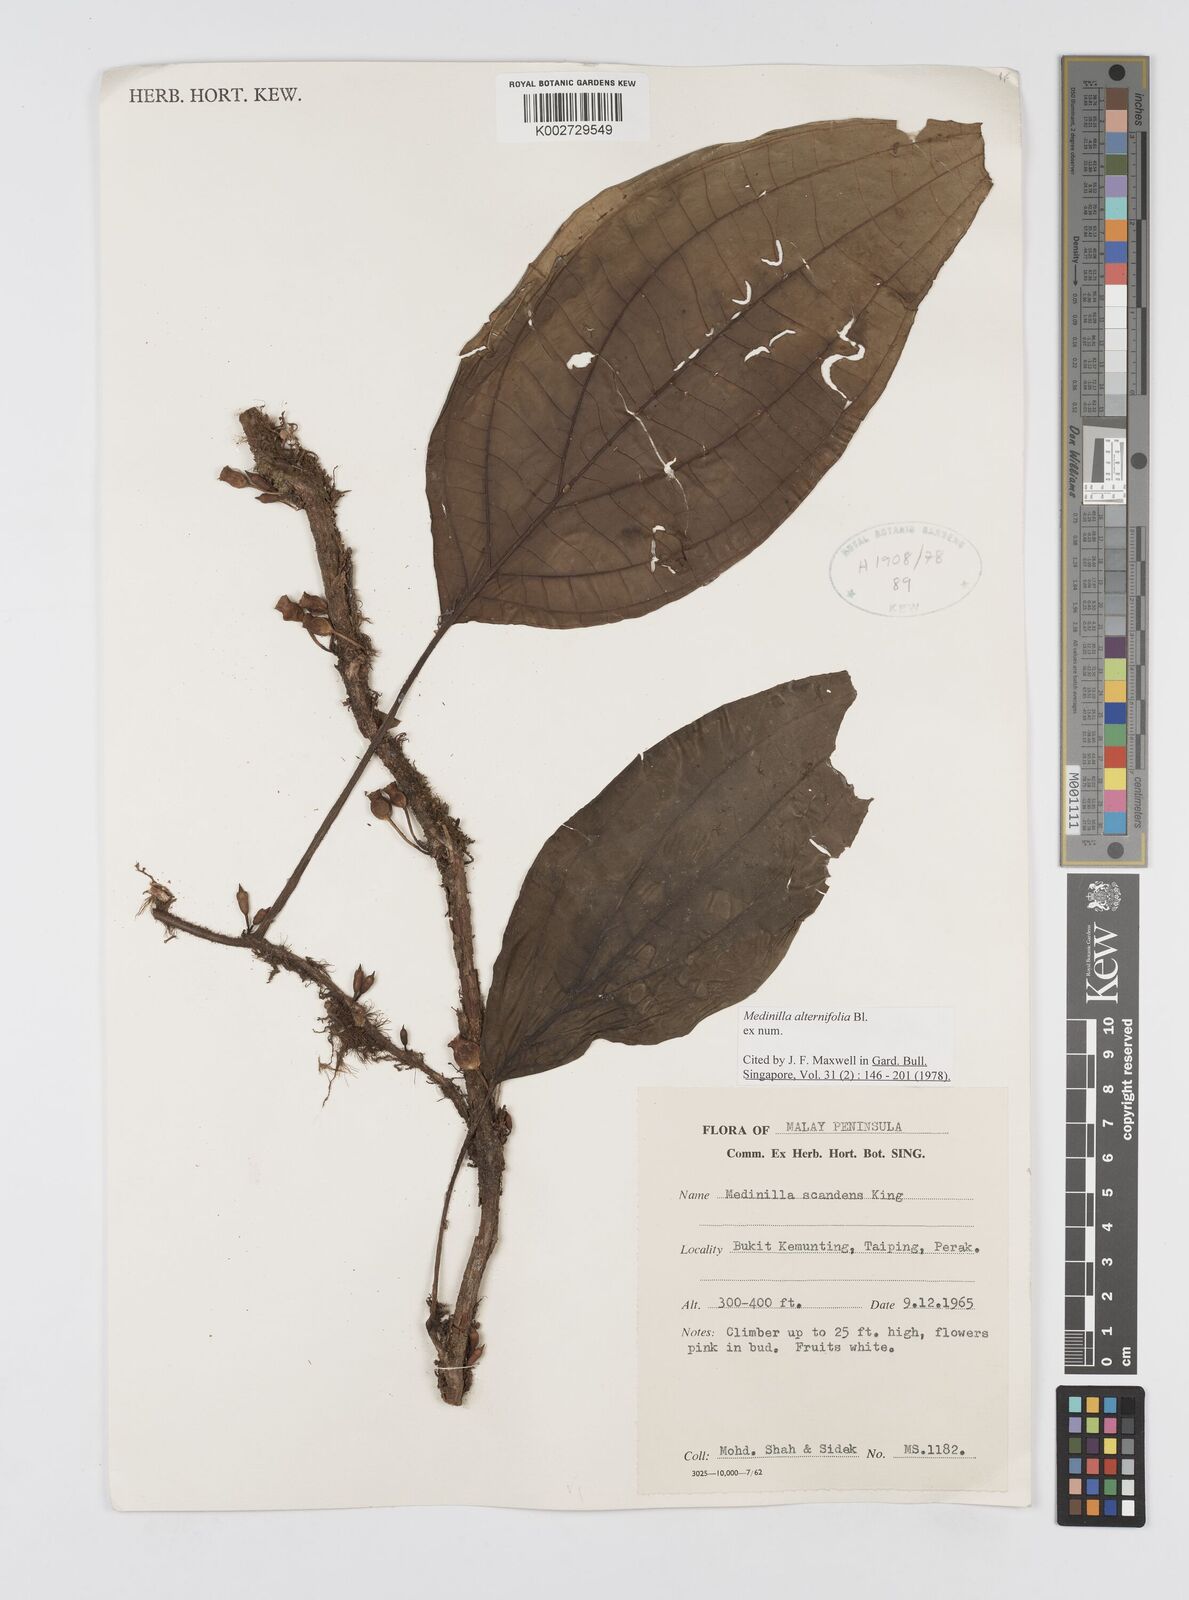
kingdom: Plantae
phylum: Tracheophyta
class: Magnoliopsida
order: Myrtales
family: Melastomataceae
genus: Heteroblemma
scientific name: Heteroblemma alternifolium
